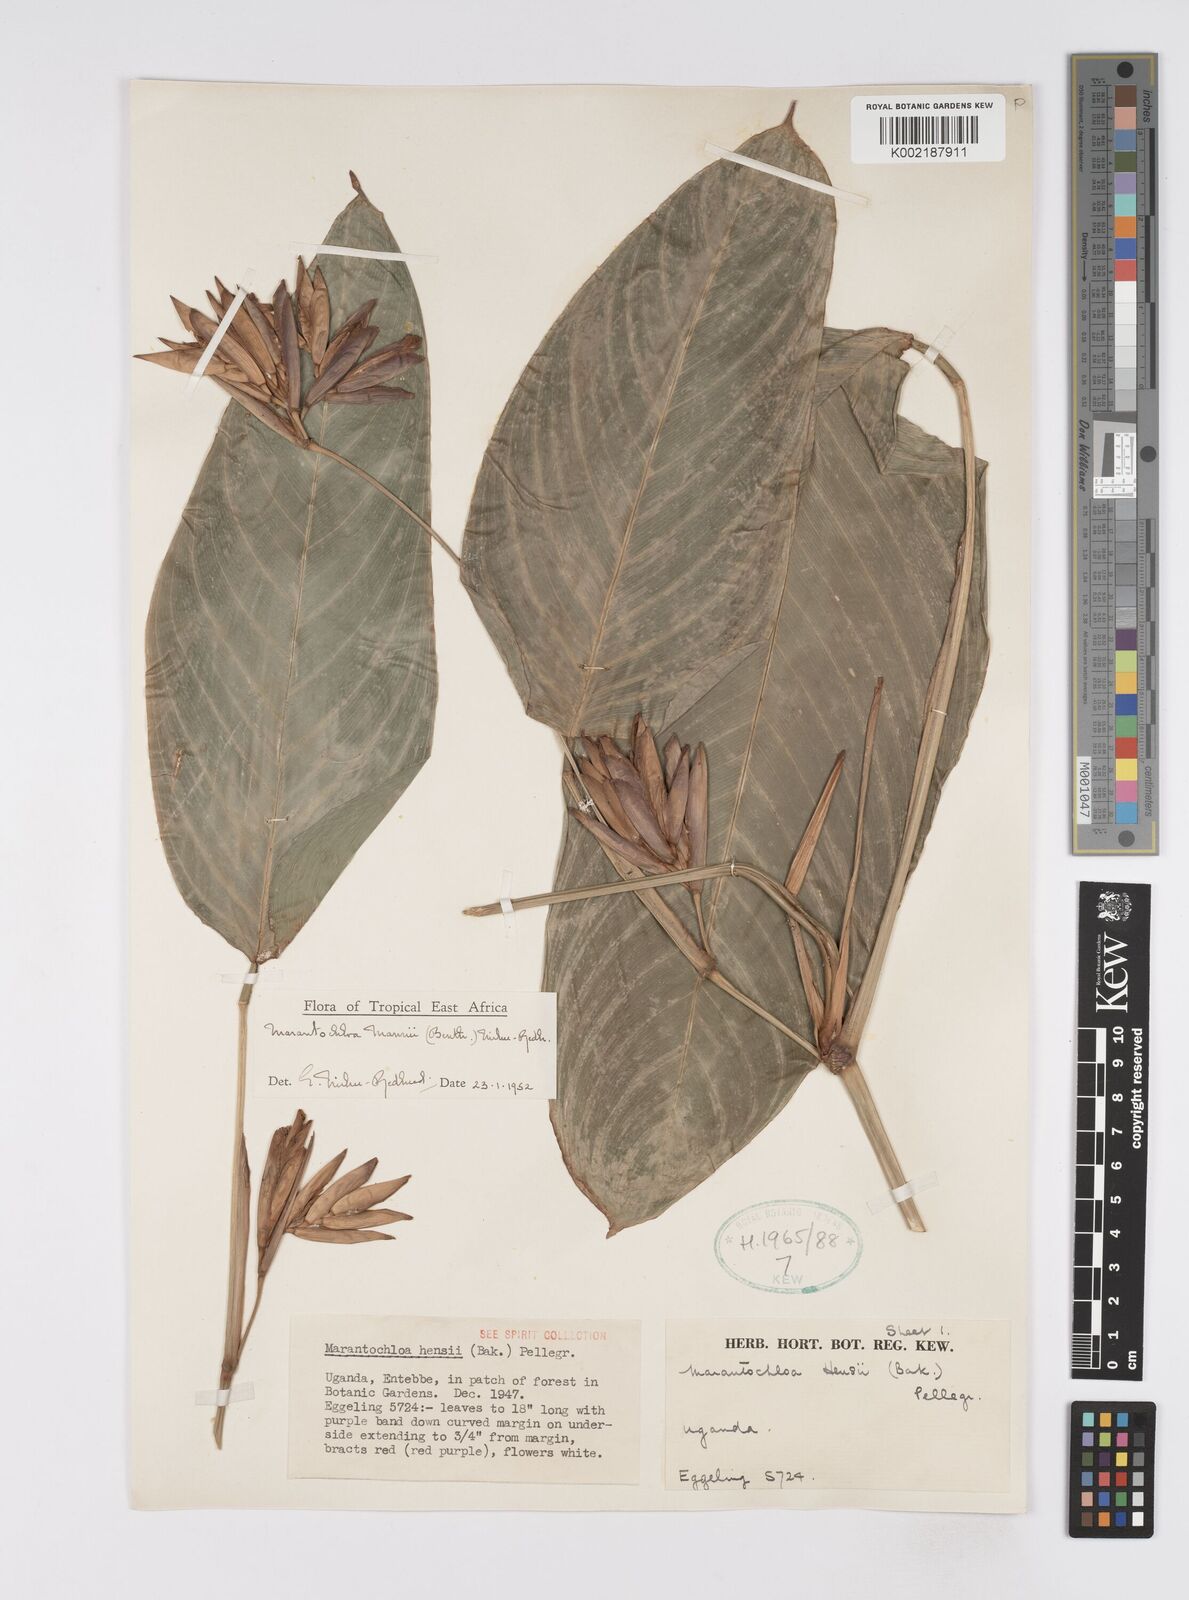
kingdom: Plantae
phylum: Tracheophyta
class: Liliopsida
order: Zingiberales
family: Marantaceae
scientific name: Marantaceae
